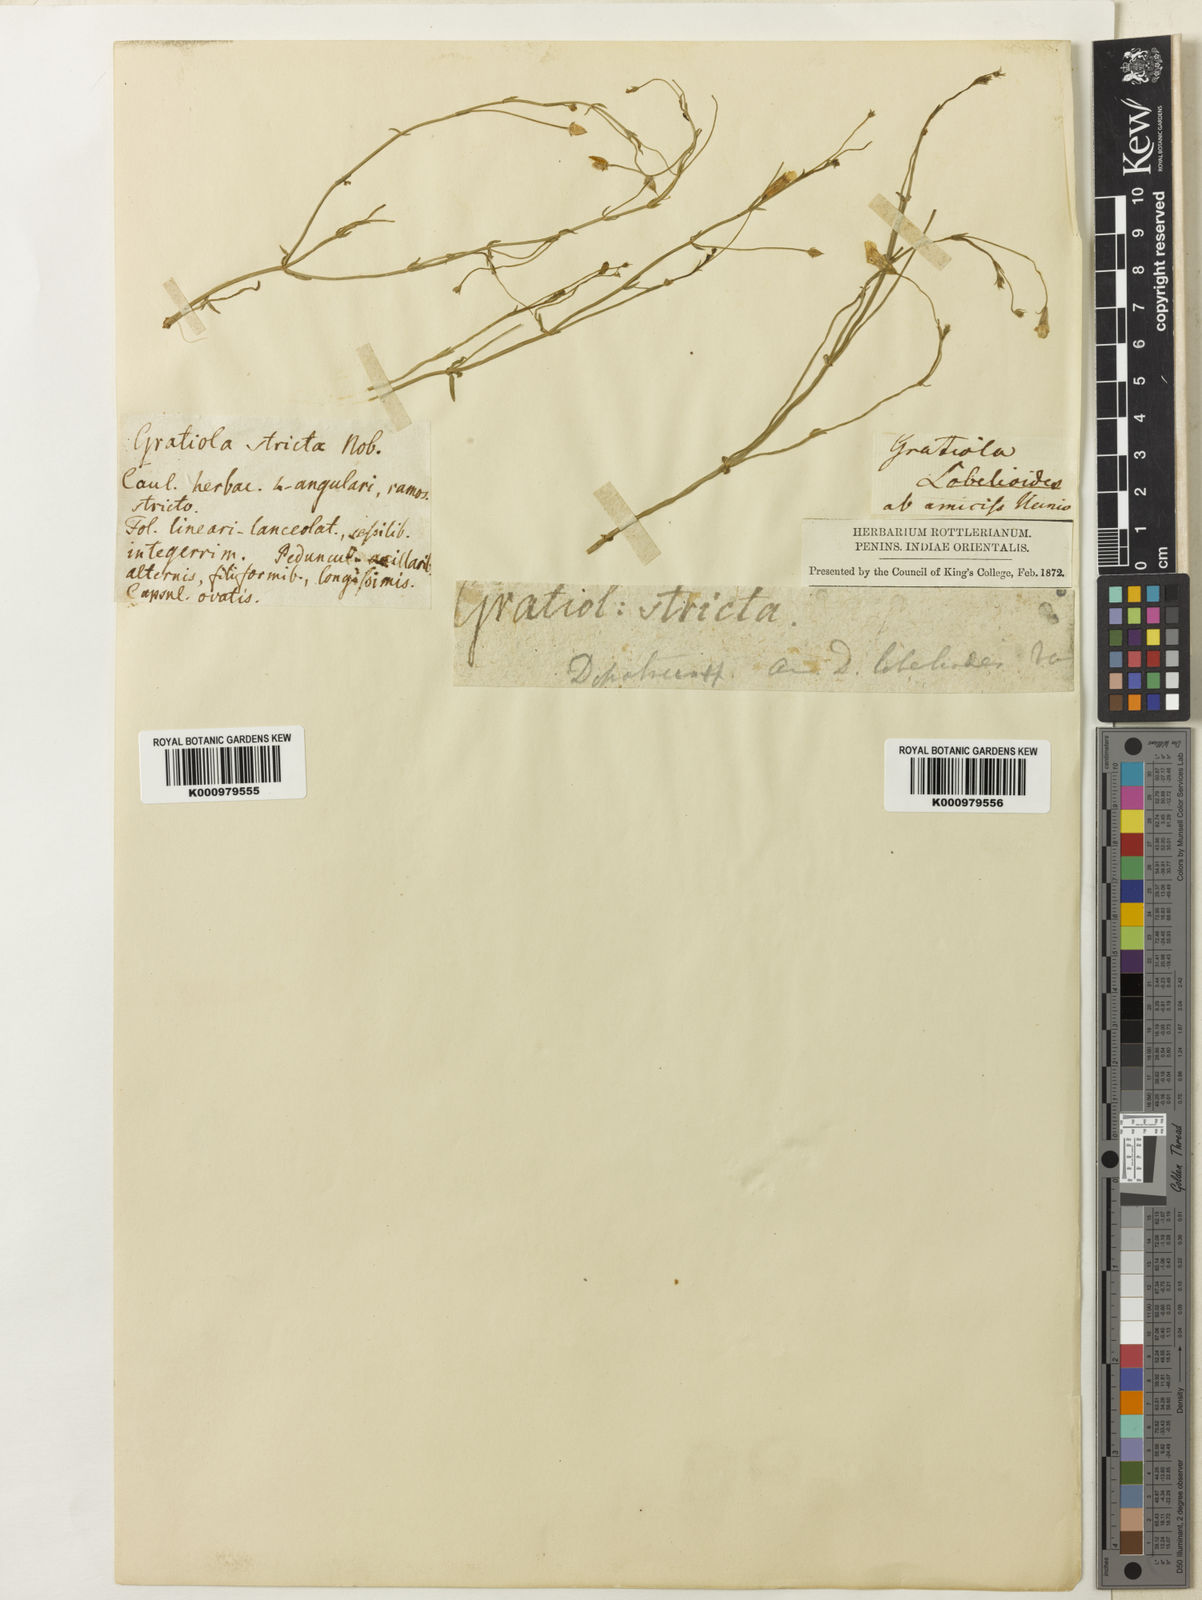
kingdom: Plantae
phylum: Tracheophyta
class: Magnoliopsida
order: Lamiales
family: Plantaginaceae
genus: Dopatrium
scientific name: Dopatrium lobelioides
